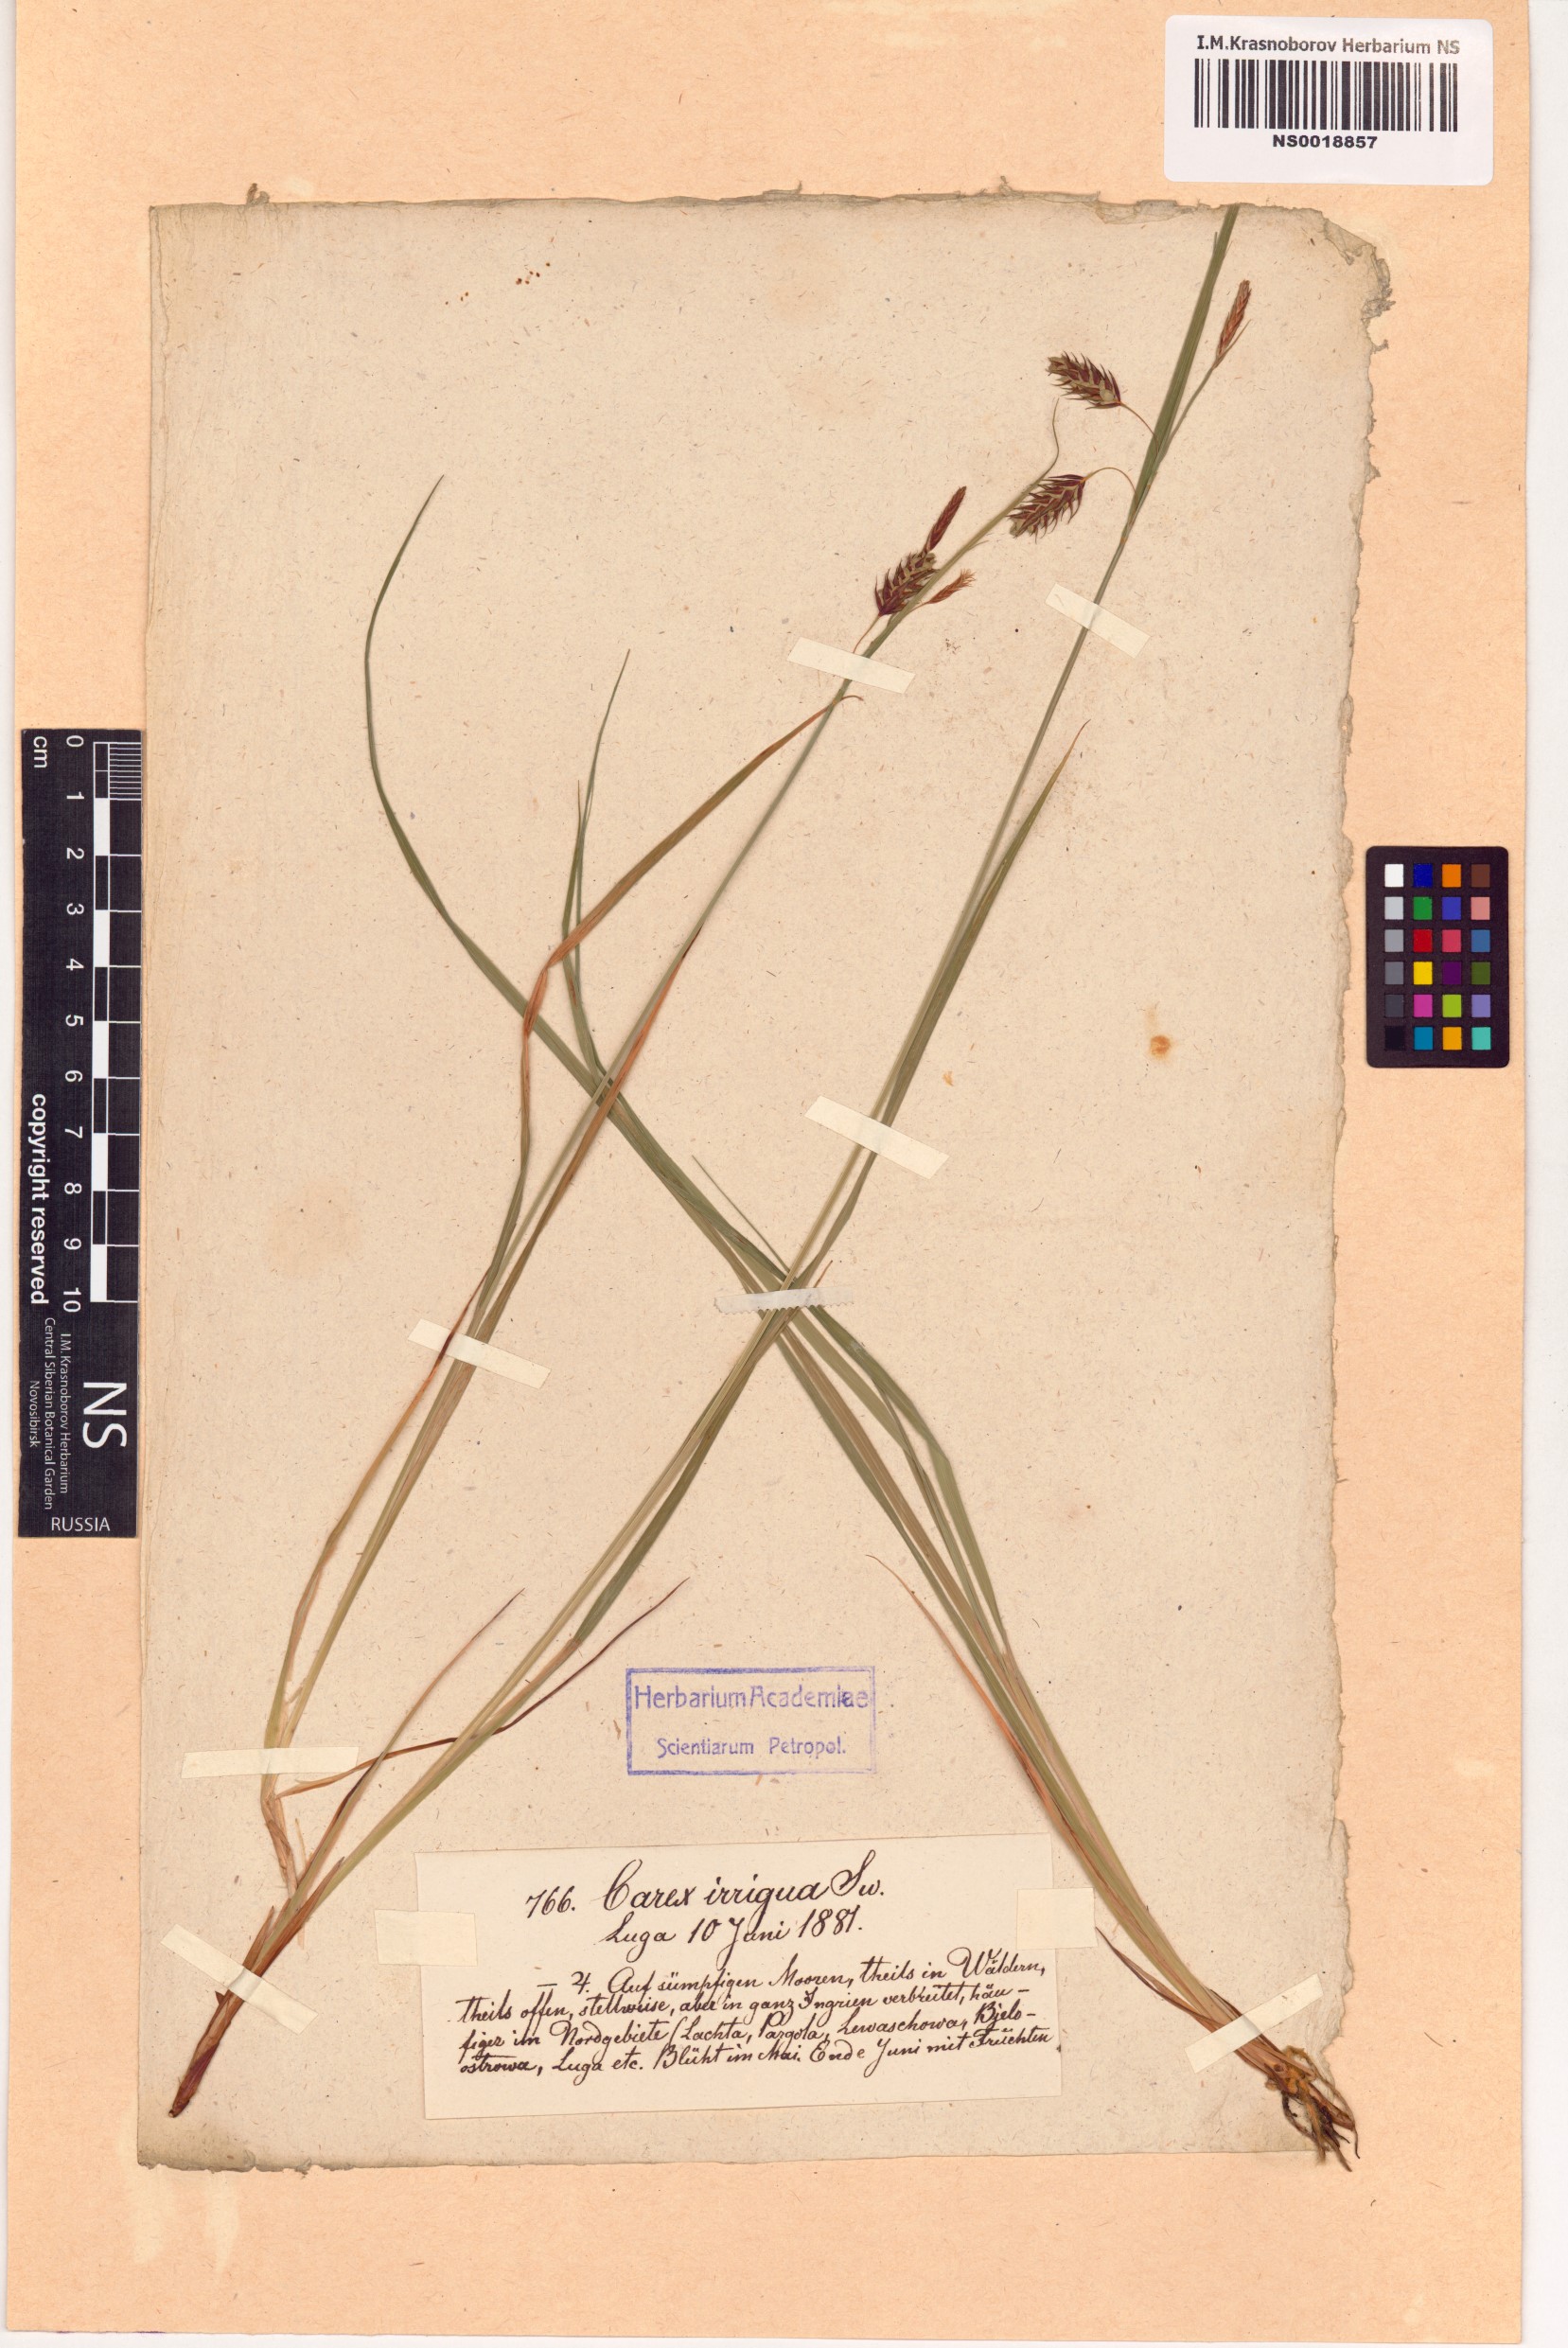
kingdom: Plantae
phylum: Tracheophyta
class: Liliopsida
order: Poales
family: Cyperaceae
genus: Carex
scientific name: Carex magellanica
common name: Bog sedge
